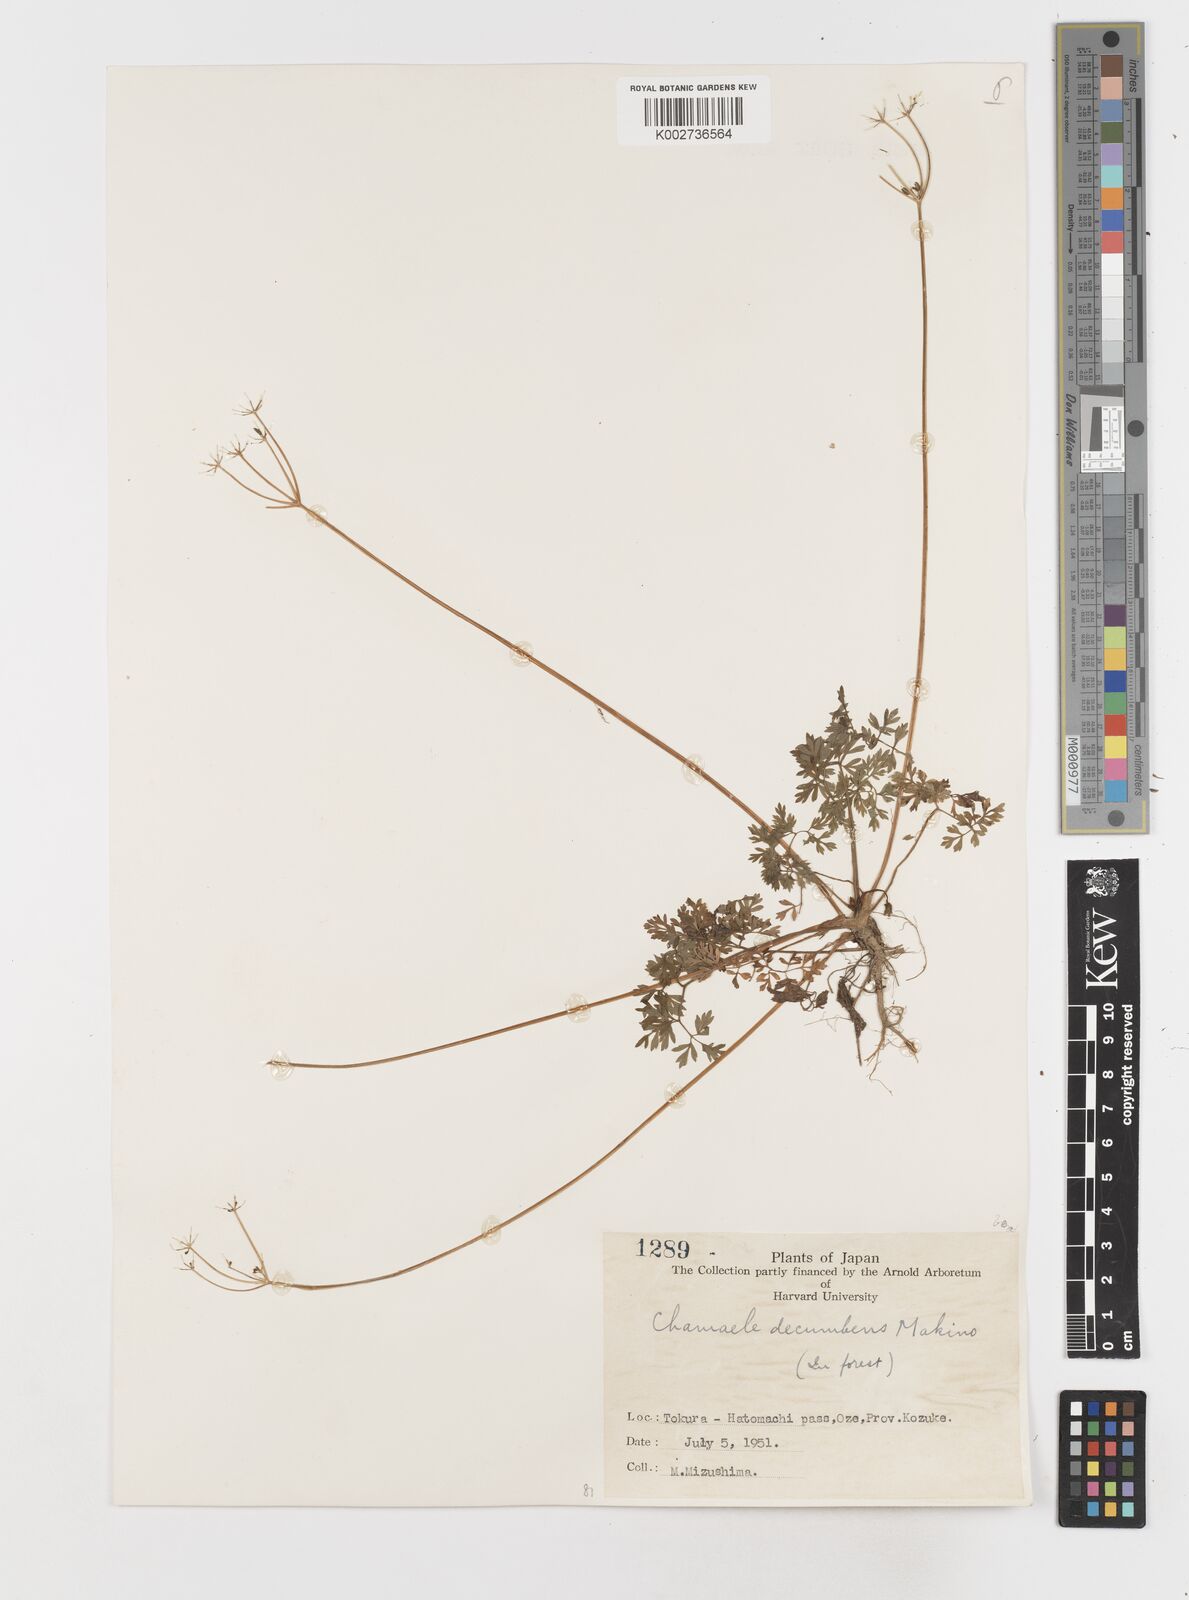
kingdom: Plantae
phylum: Tracheophyta
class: Magnoliopsida
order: Apiales
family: Apiaceae
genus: Aegopodium
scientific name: Aegopodium decumbens
